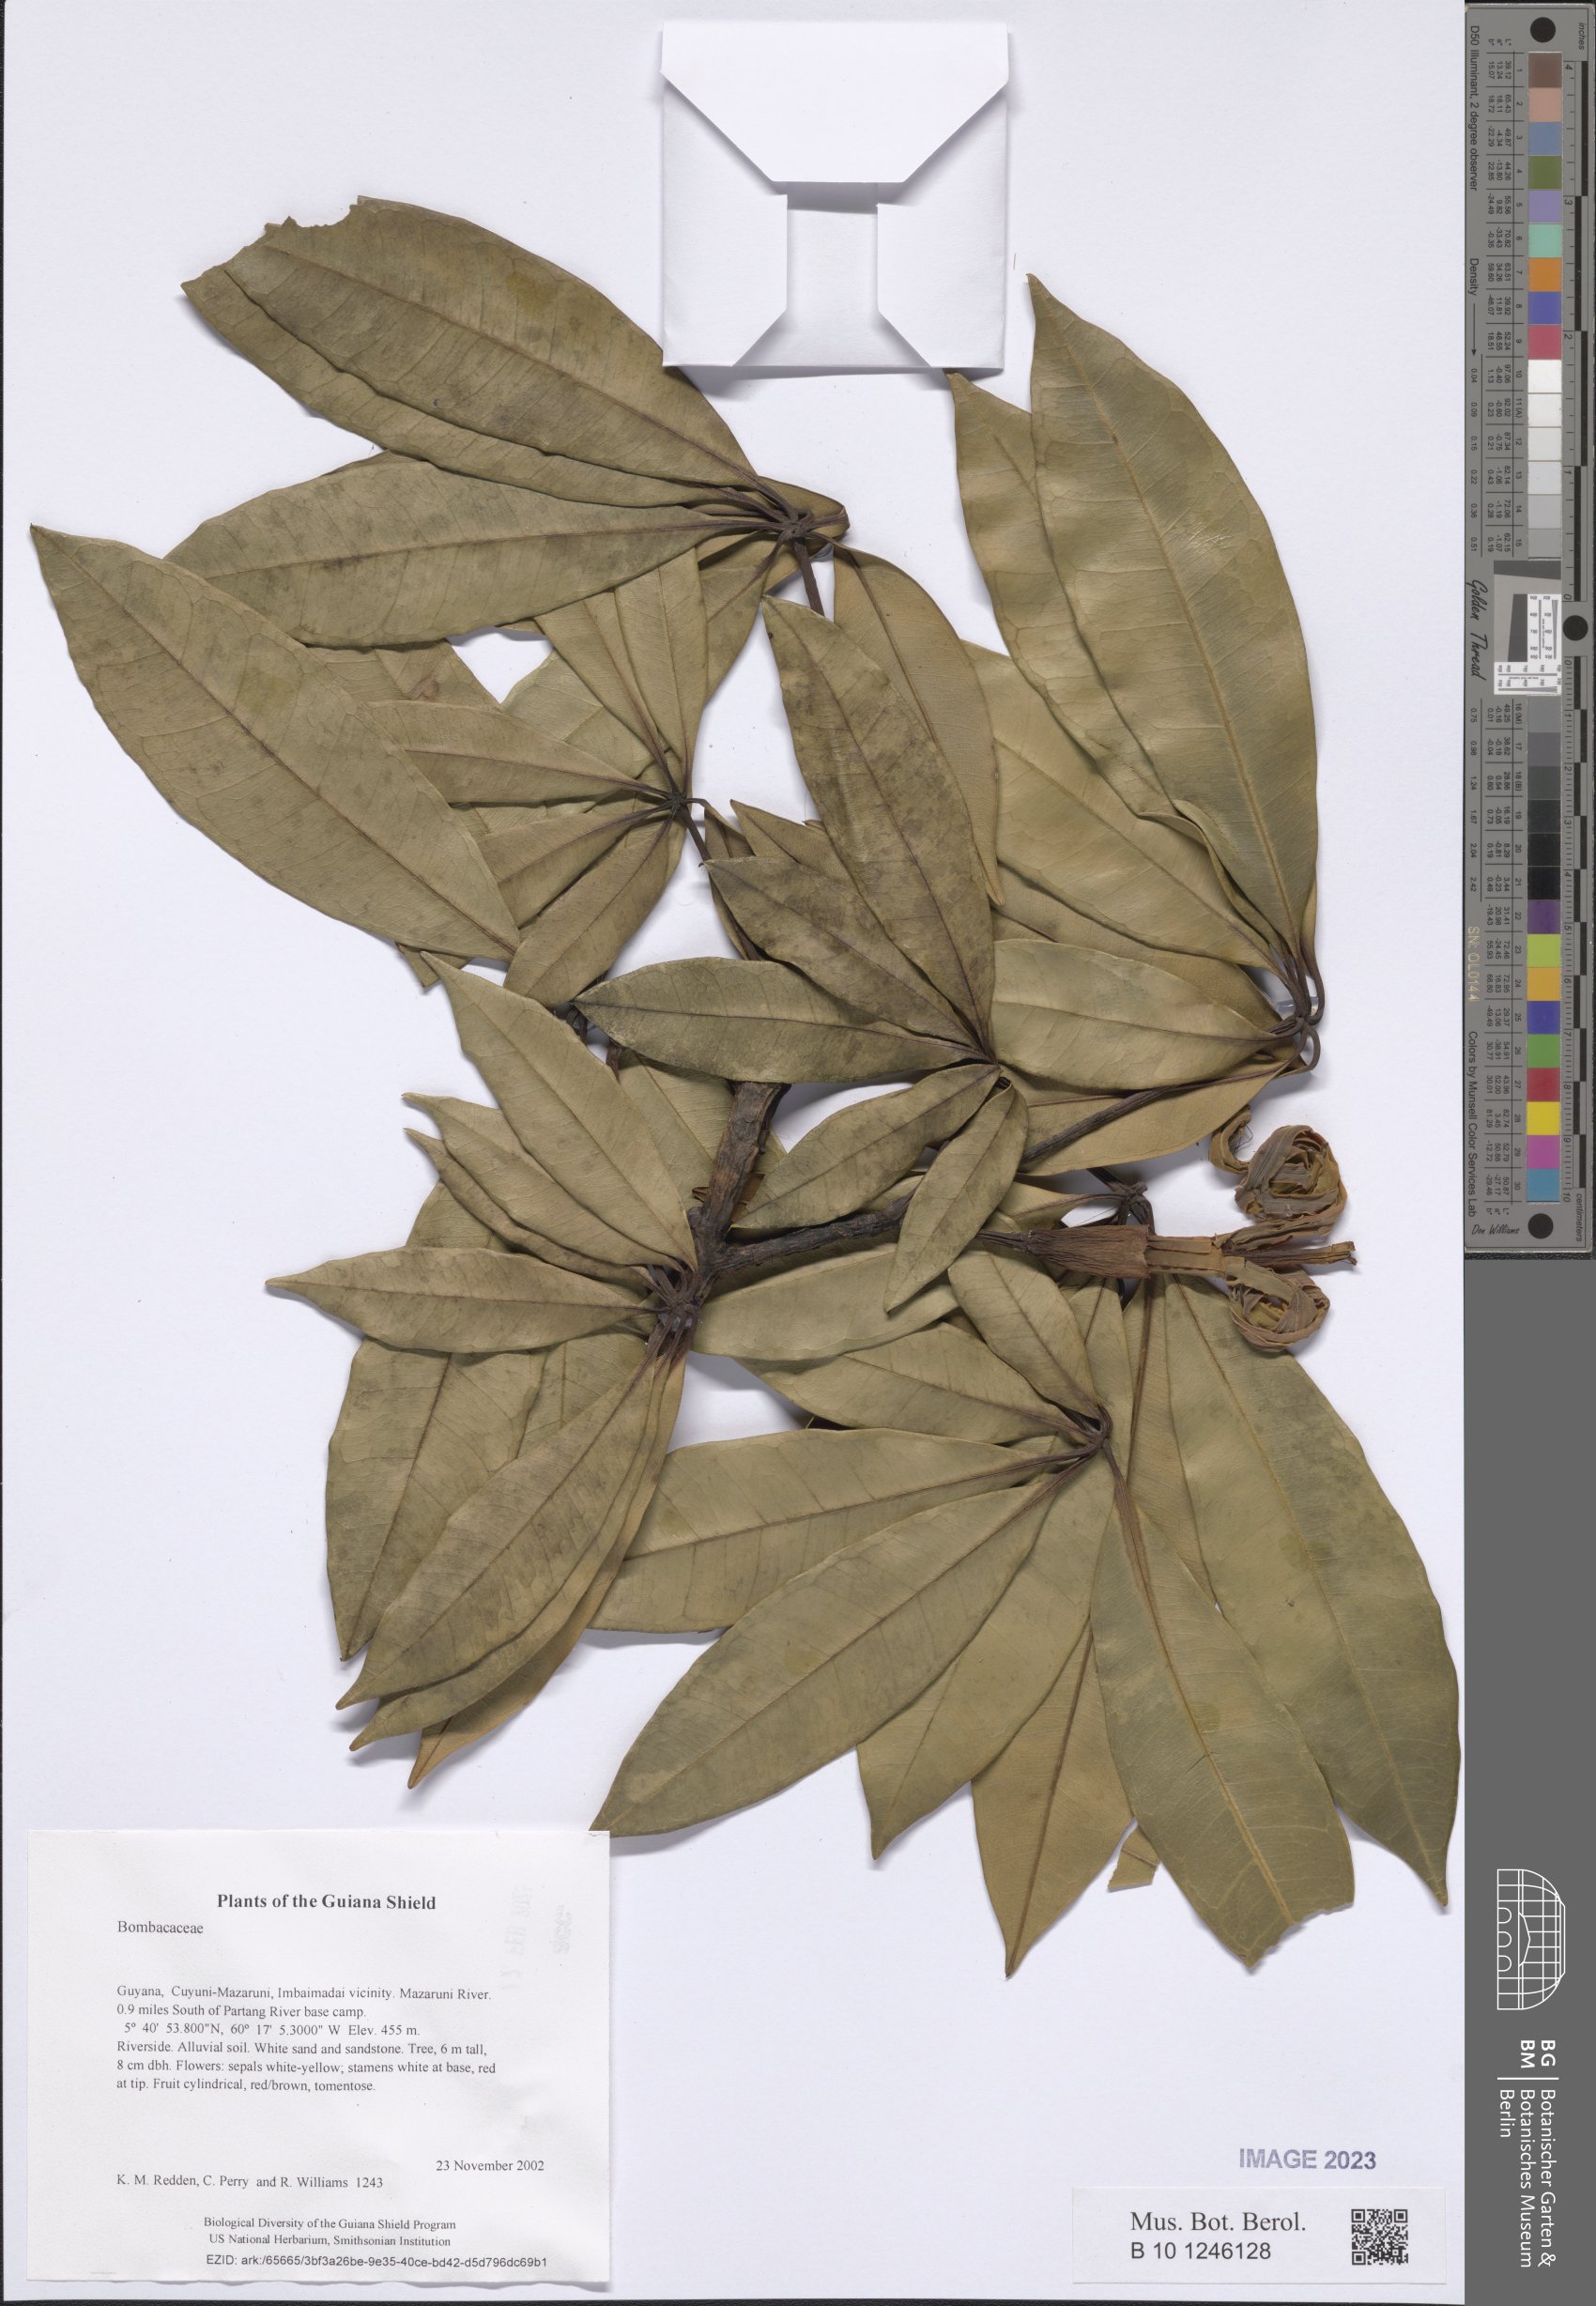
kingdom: Plantae
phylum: Tracheophyta
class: Magnoliopsida
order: Malvales
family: Malvaceae
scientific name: Malvaceae
